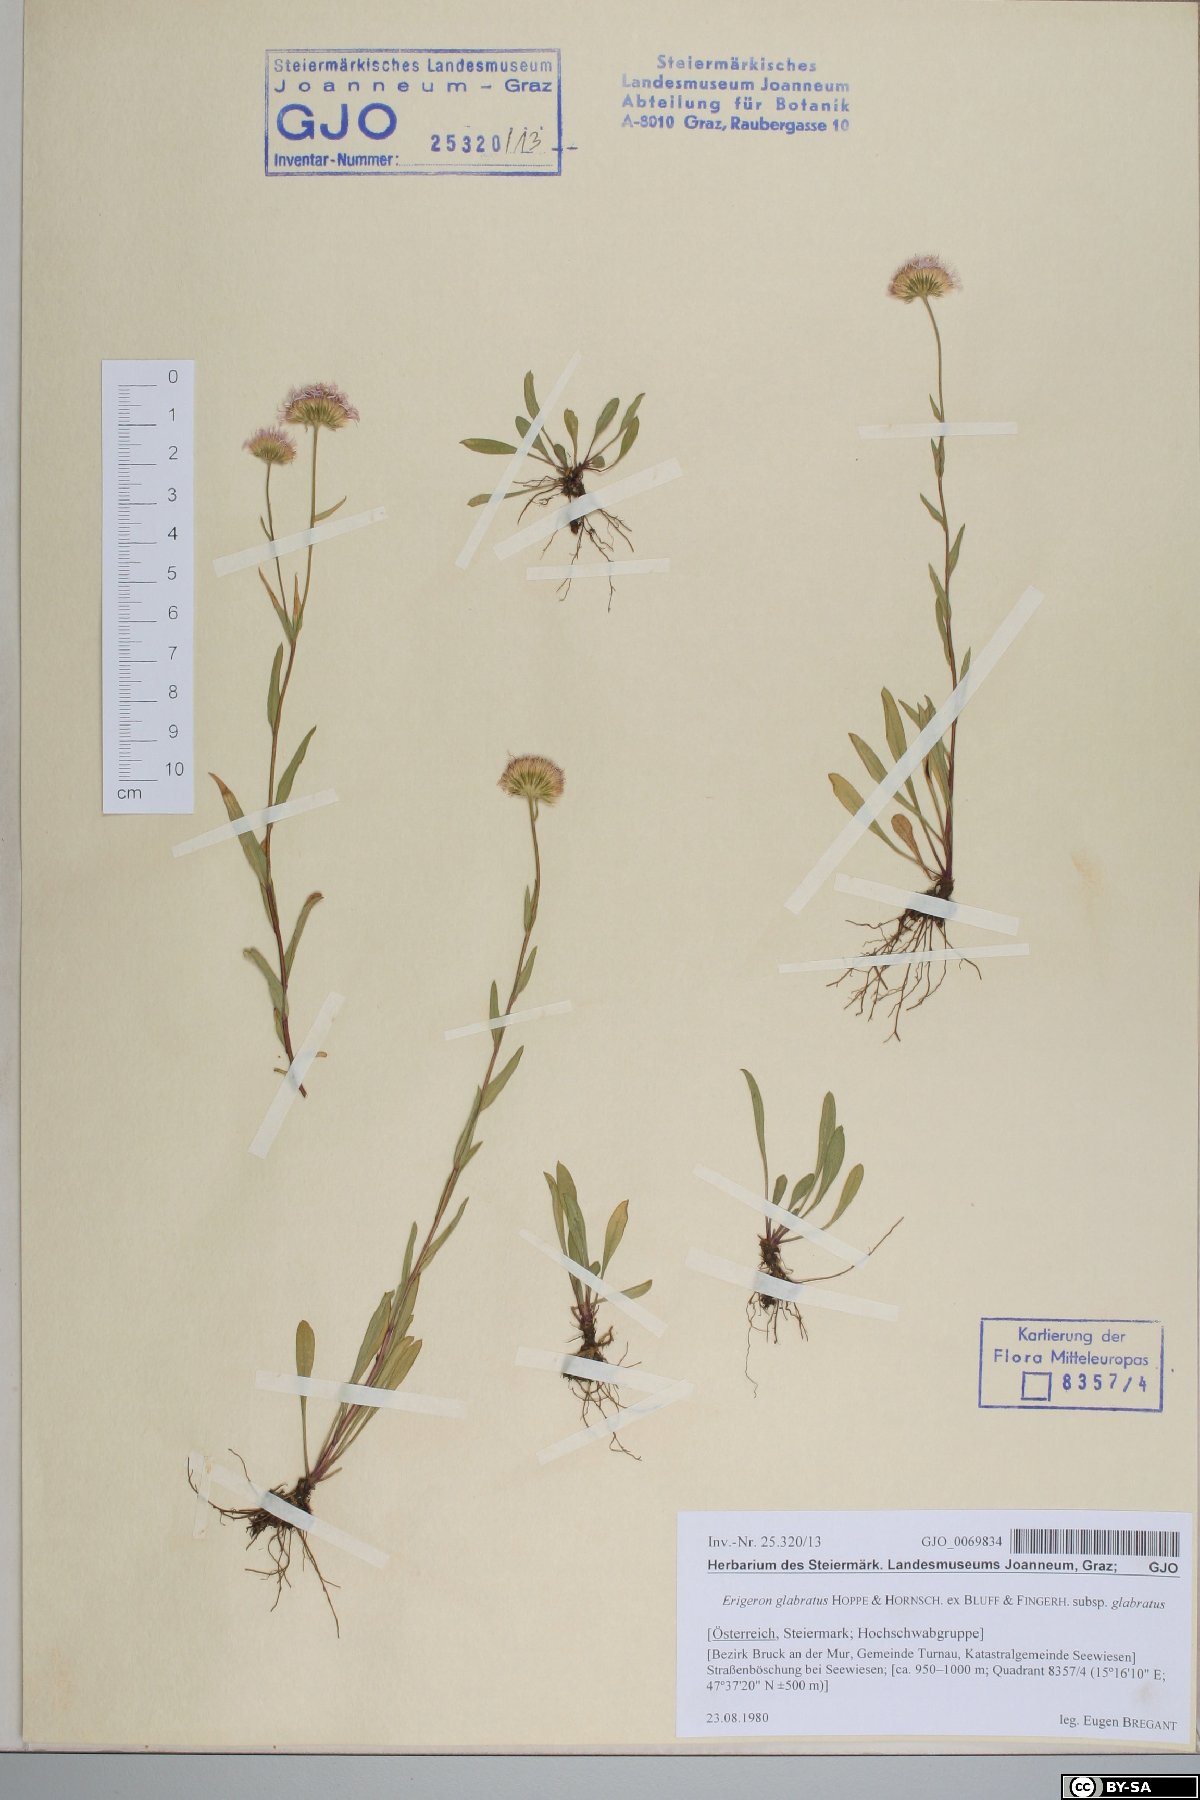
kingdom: Plantae
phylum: Tracheophyta
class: Magnoliopsida
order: Asterales
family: Asteraceae
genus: Erigeron
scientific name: Erigeron glabratus
